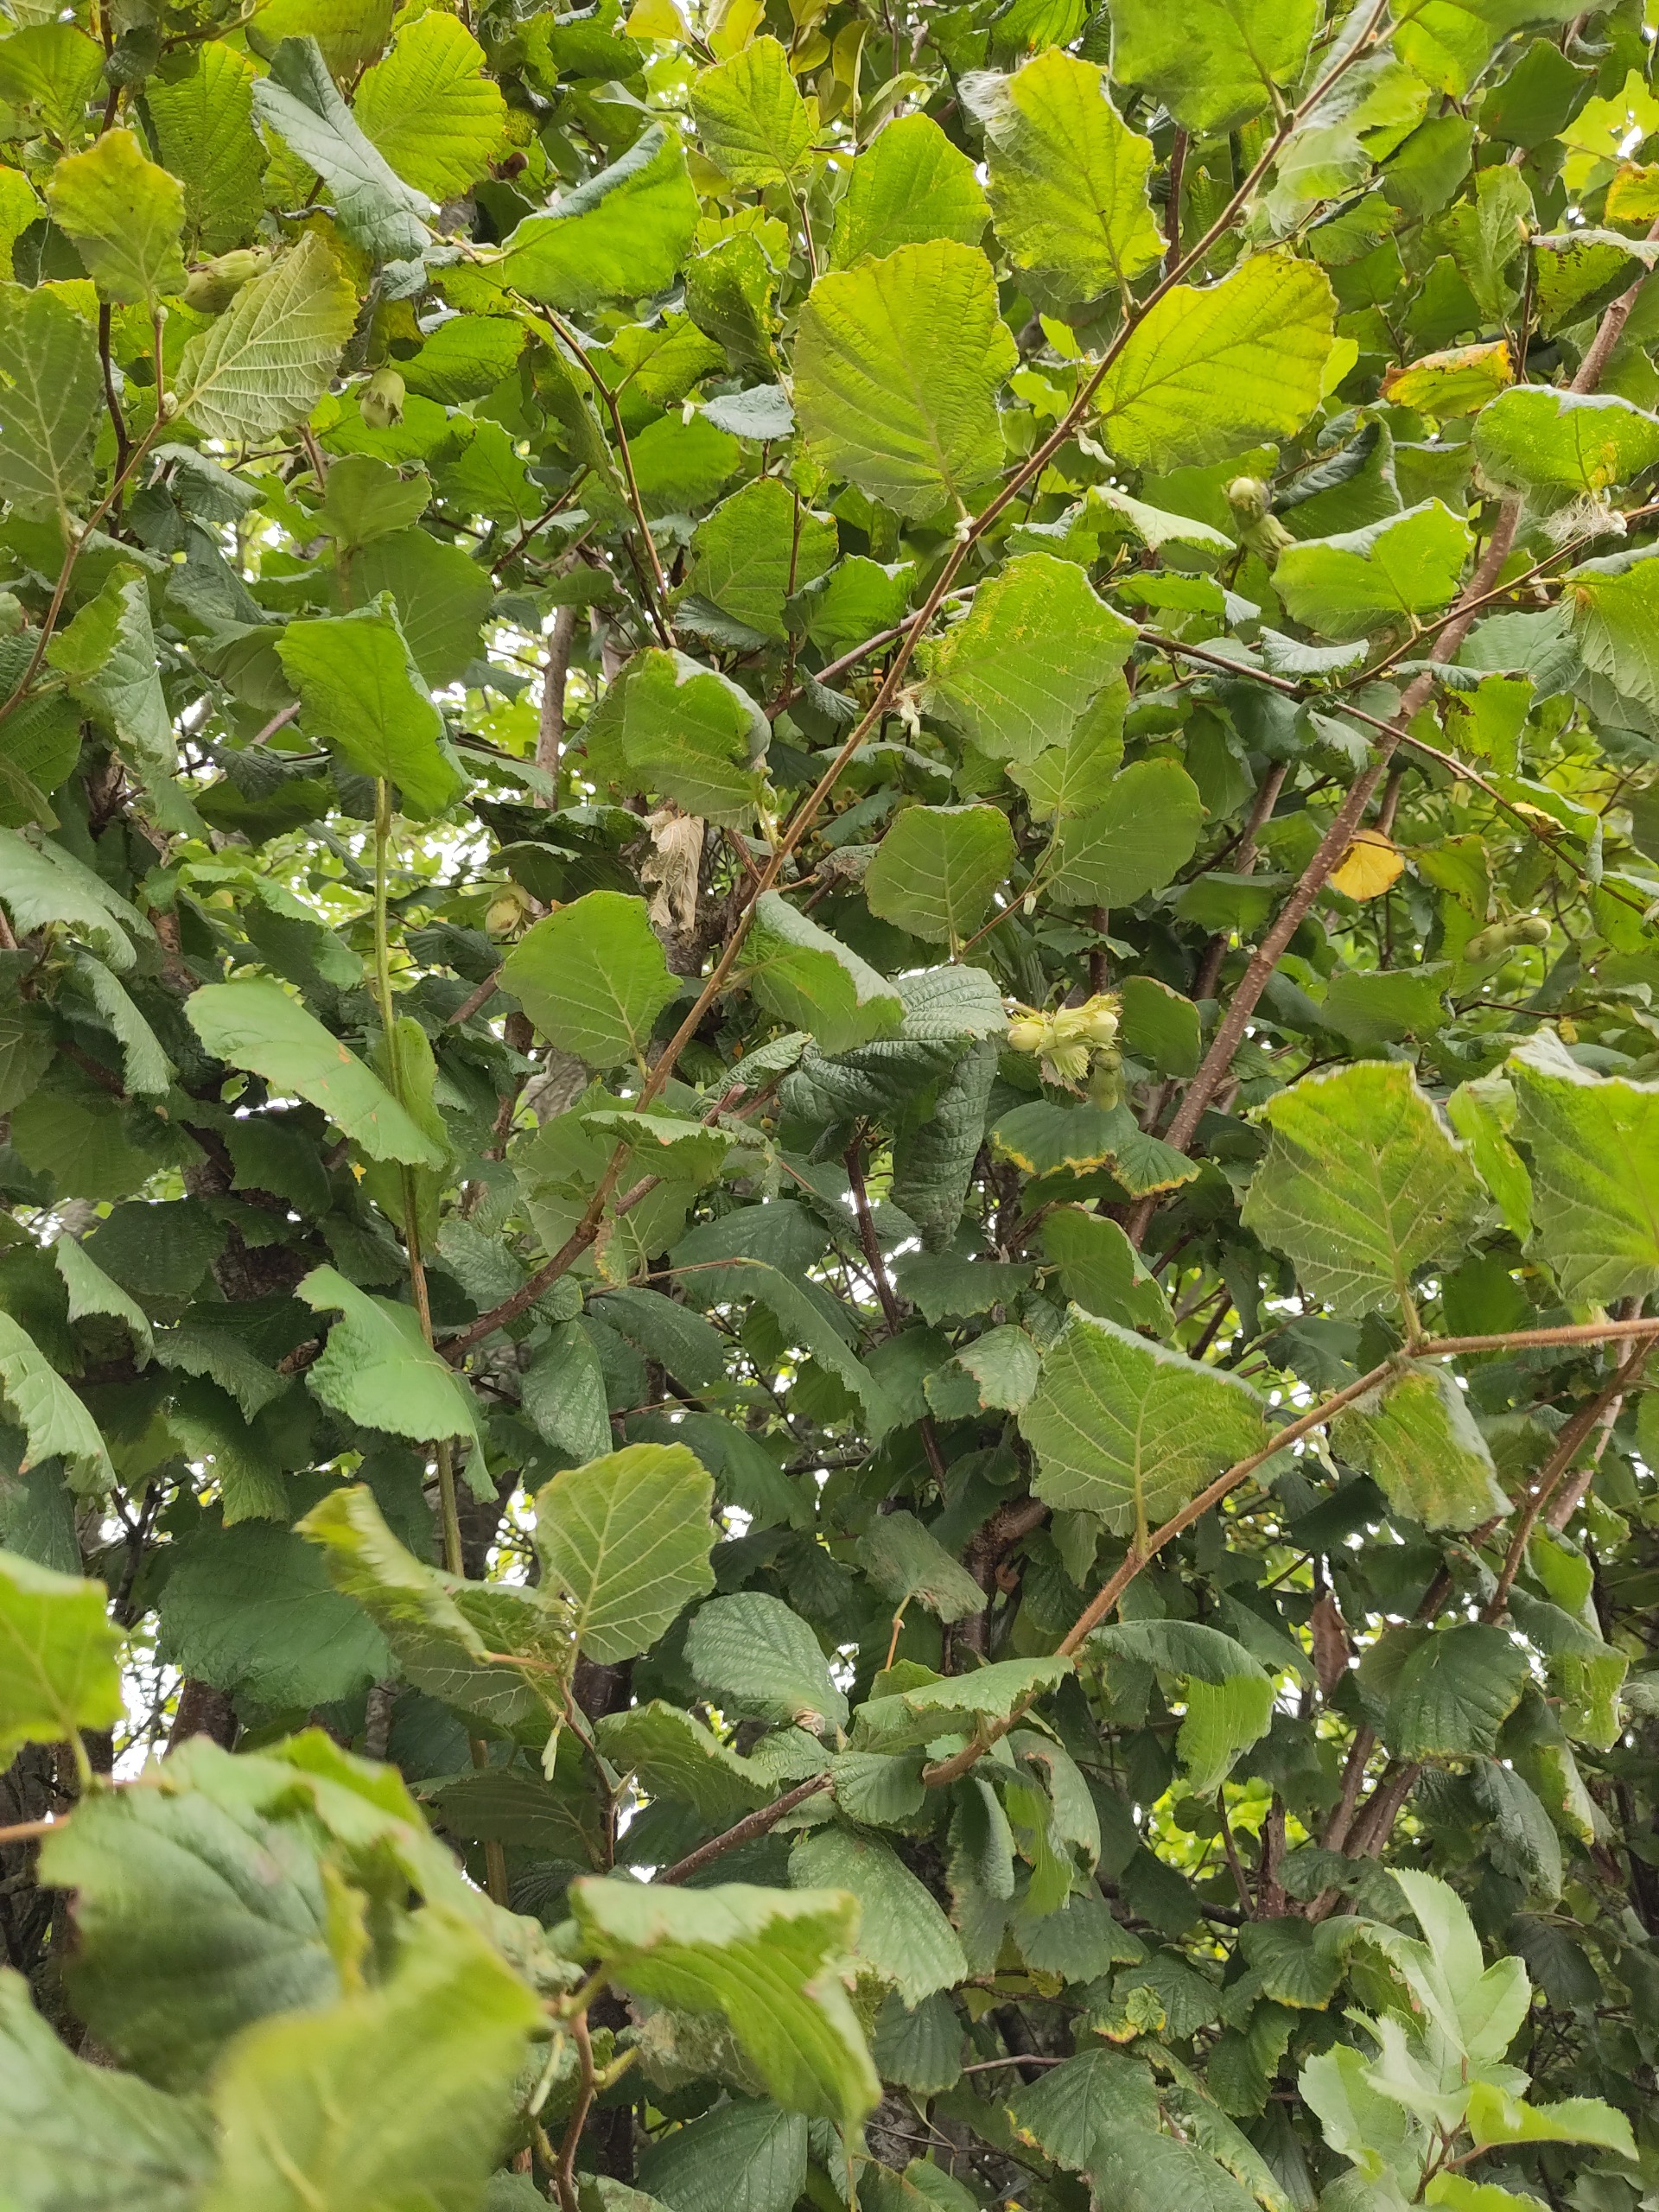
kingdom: Plantae
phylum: Tracheophyta
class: Magnoliopsida
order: Fagales
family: Betulaceae
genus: Corylus
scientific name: Corylus avellana
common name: Hassel
